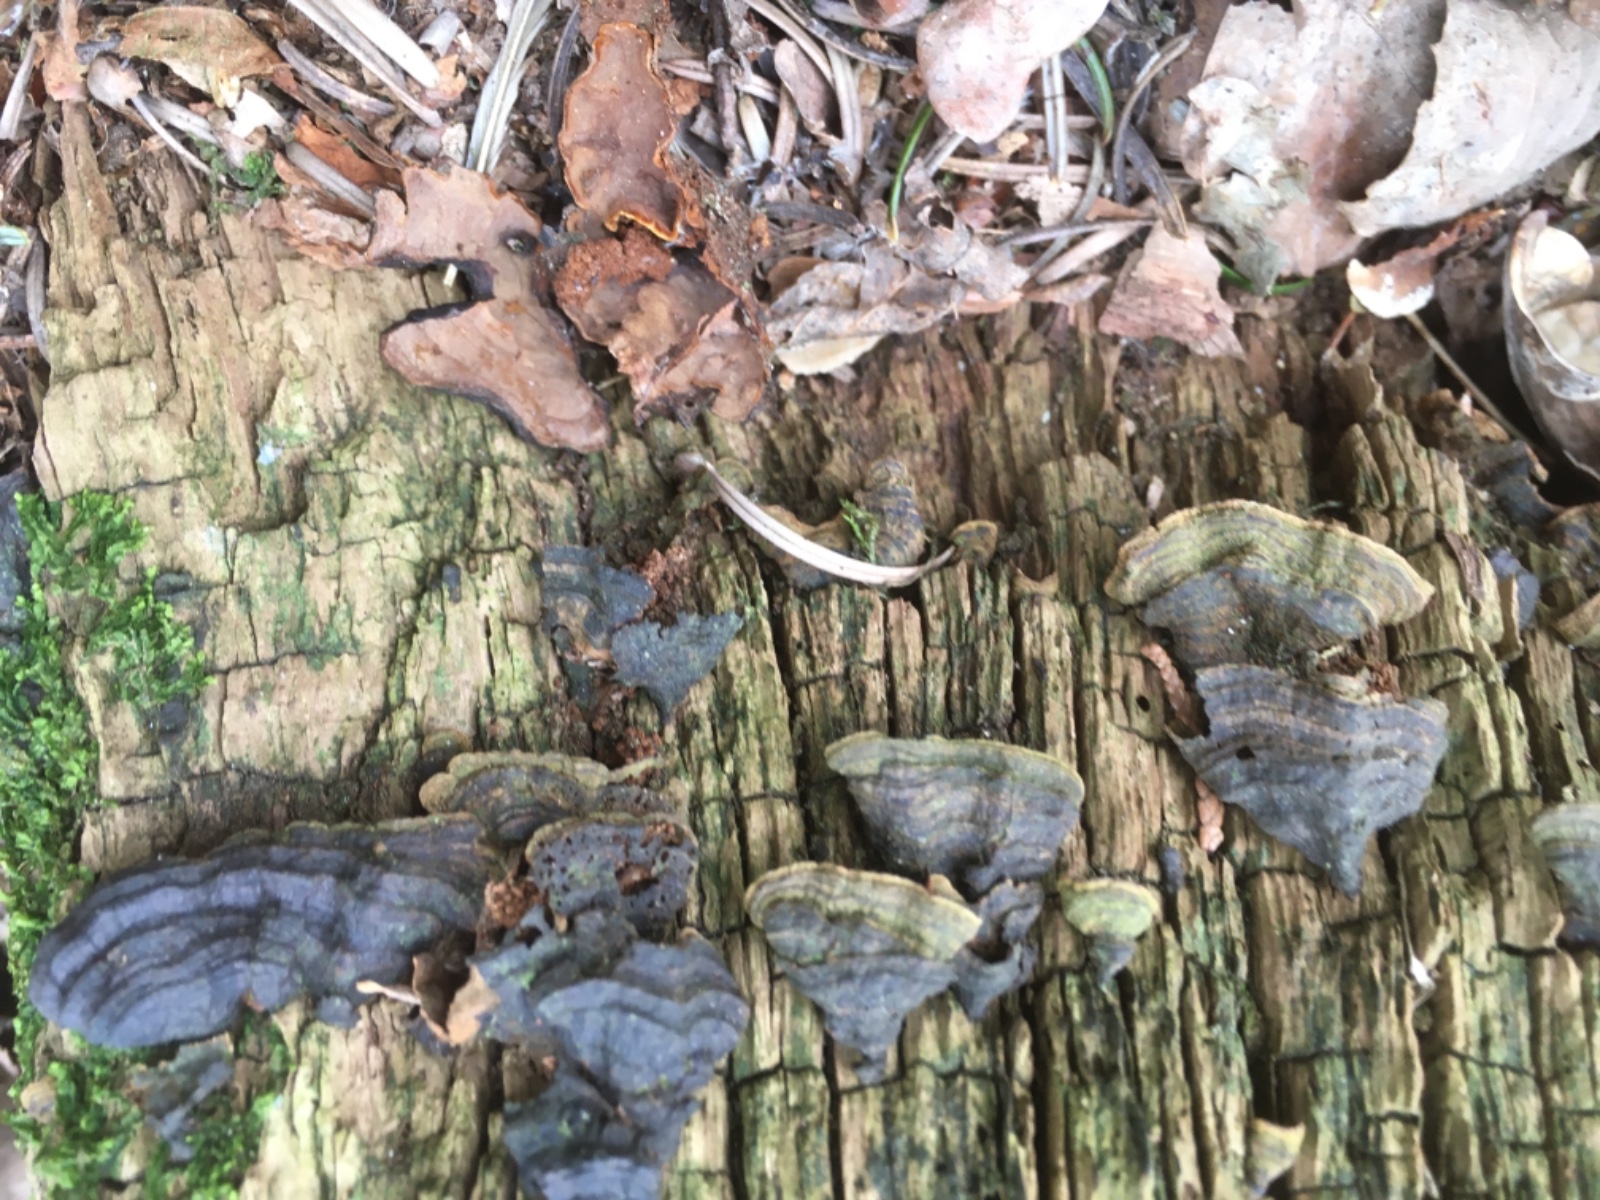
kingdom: Fungi
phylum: Basidiomycota
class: Agaricomycetes
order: Hymenochaetales
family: Hymenochaetaceae
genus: Hymenochaete
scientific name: Hymenochaete rubiginosa
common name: stiv ruslædersvamp
